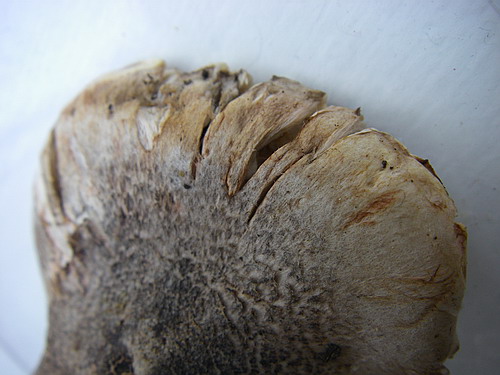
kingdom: Fungi
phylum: Basidiomycota
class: Agaricomycetes
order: Agaricales
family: Tricholomataceae
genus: Tricholoma
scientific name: Tricholoma basirubens
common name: rødfodet ridderhat
